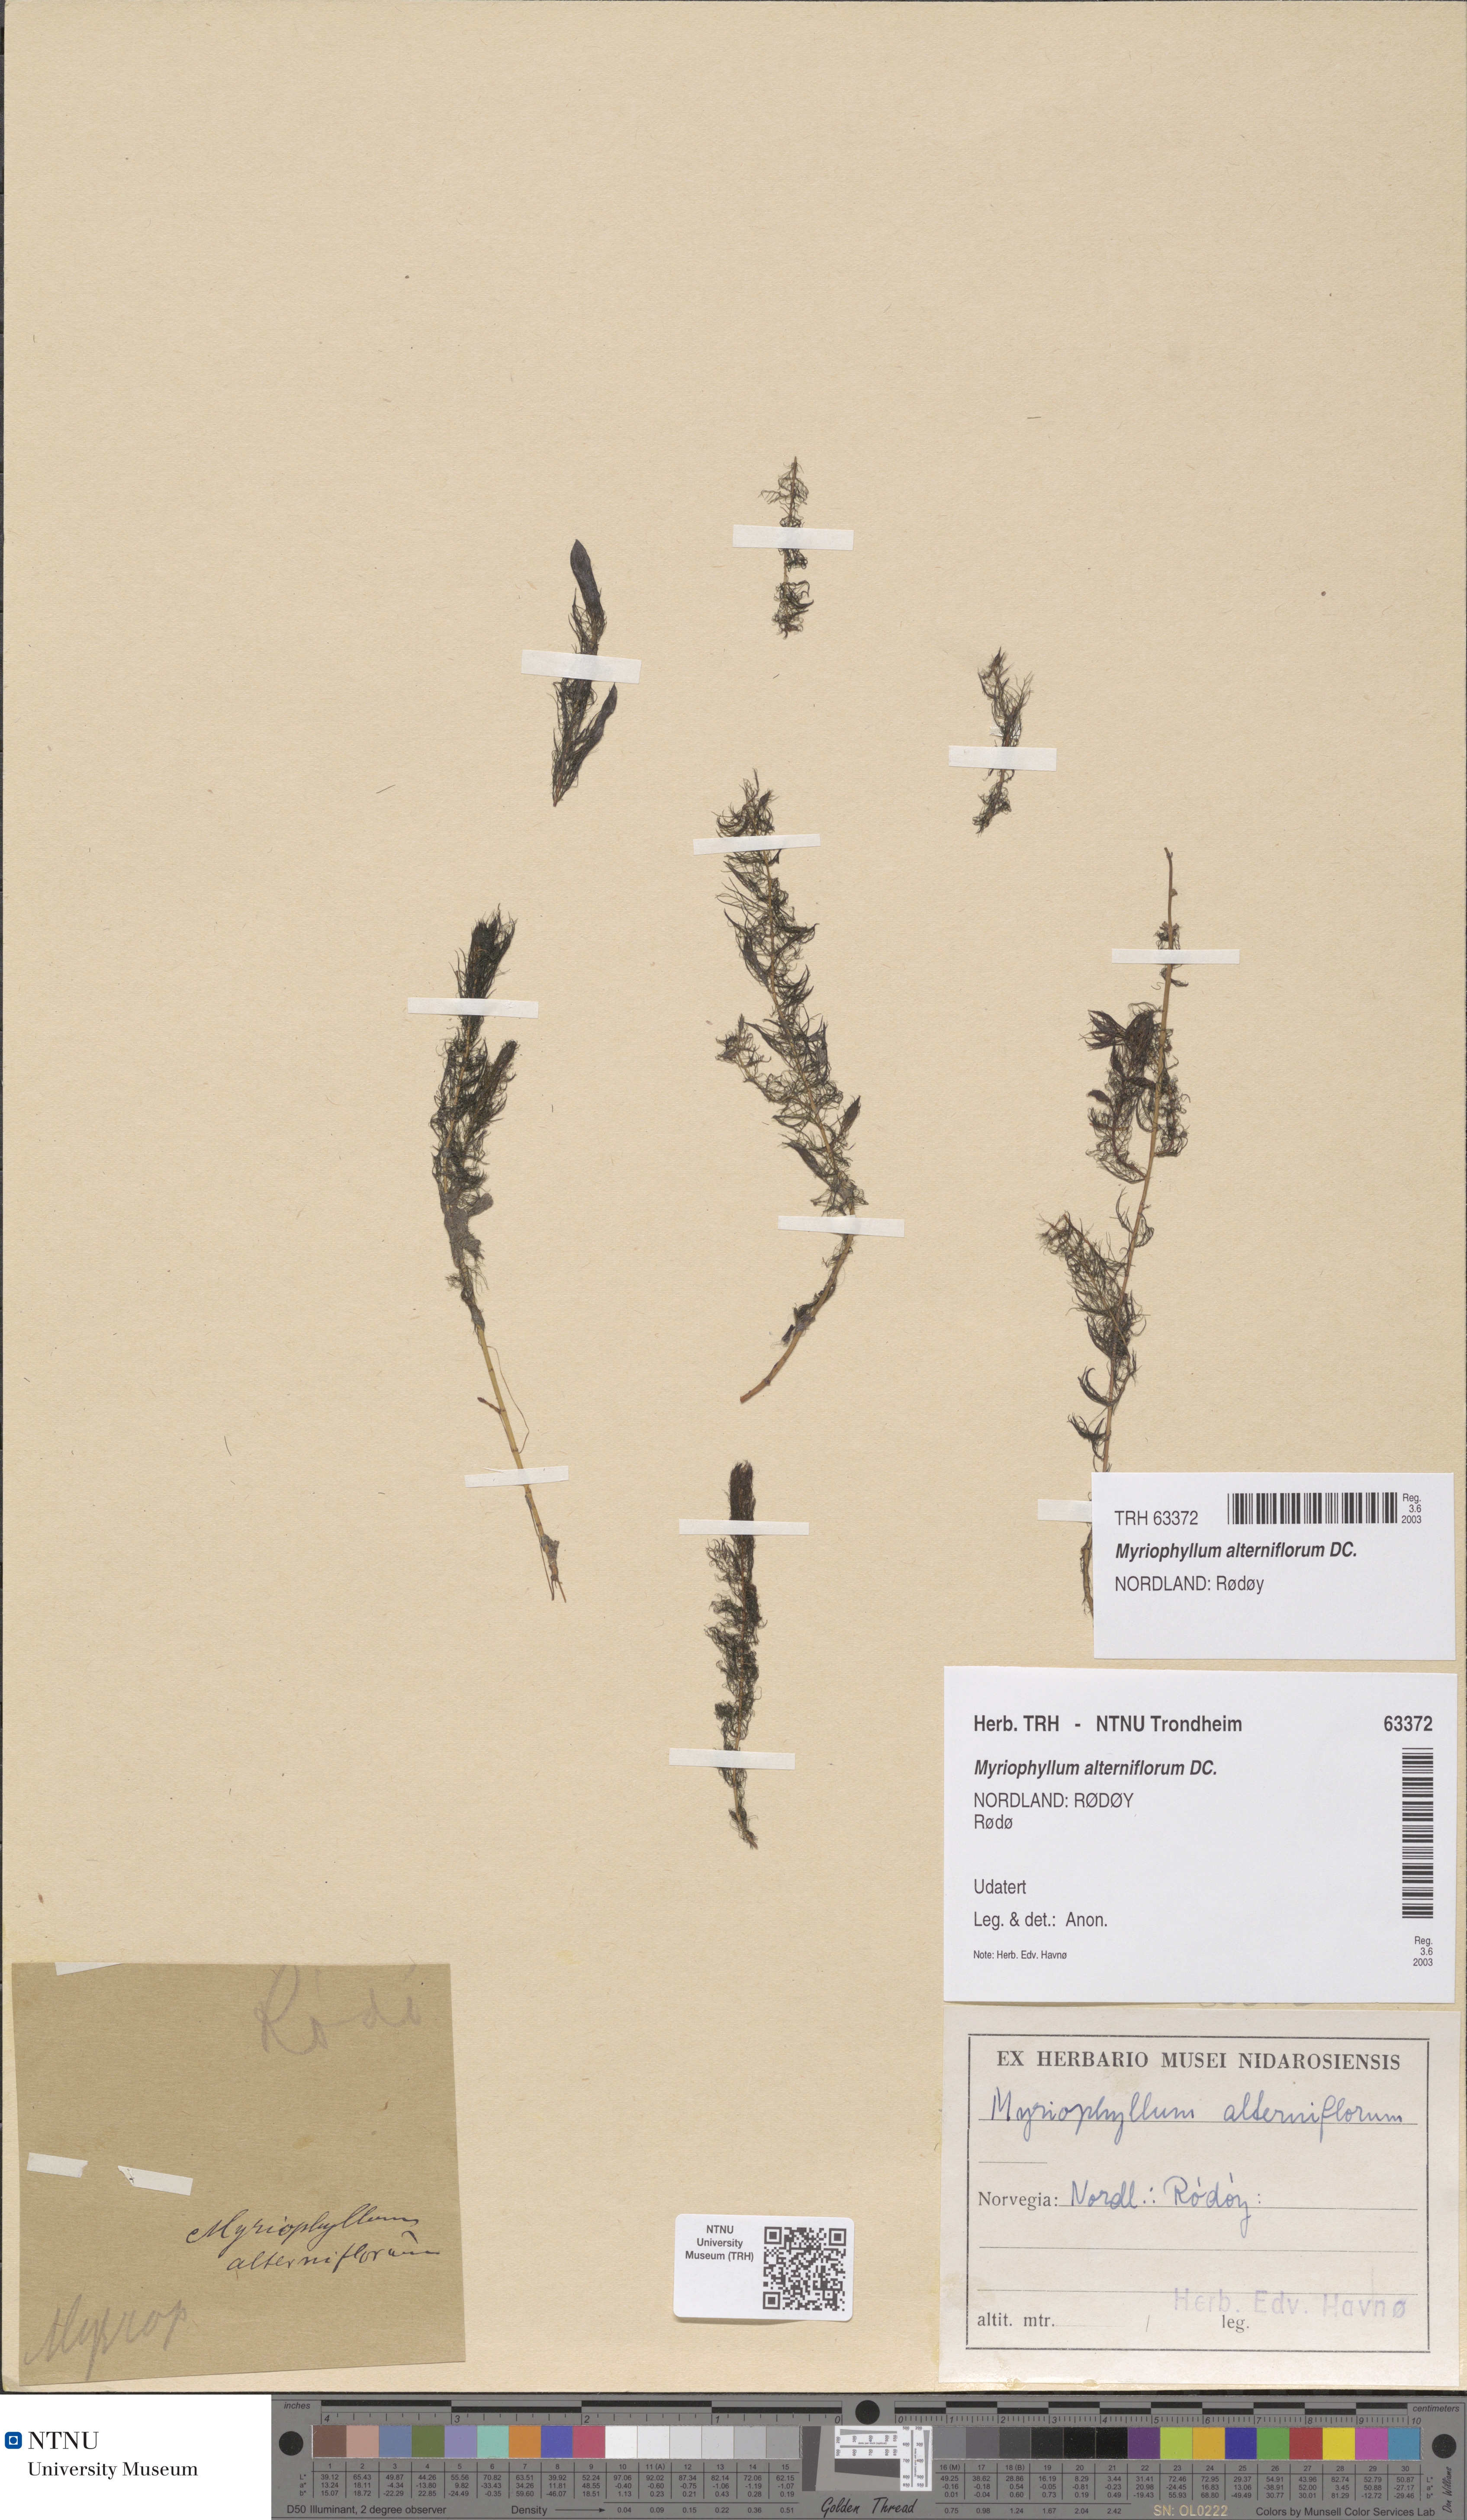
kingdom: Plantae
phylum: Tracheophyta
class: Magnoliopsida
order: Saxifragales
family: Haloragaceae
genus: Myriophyllum
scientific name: Myriophyllum alterniflorum
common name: Alternate water-milfoil
